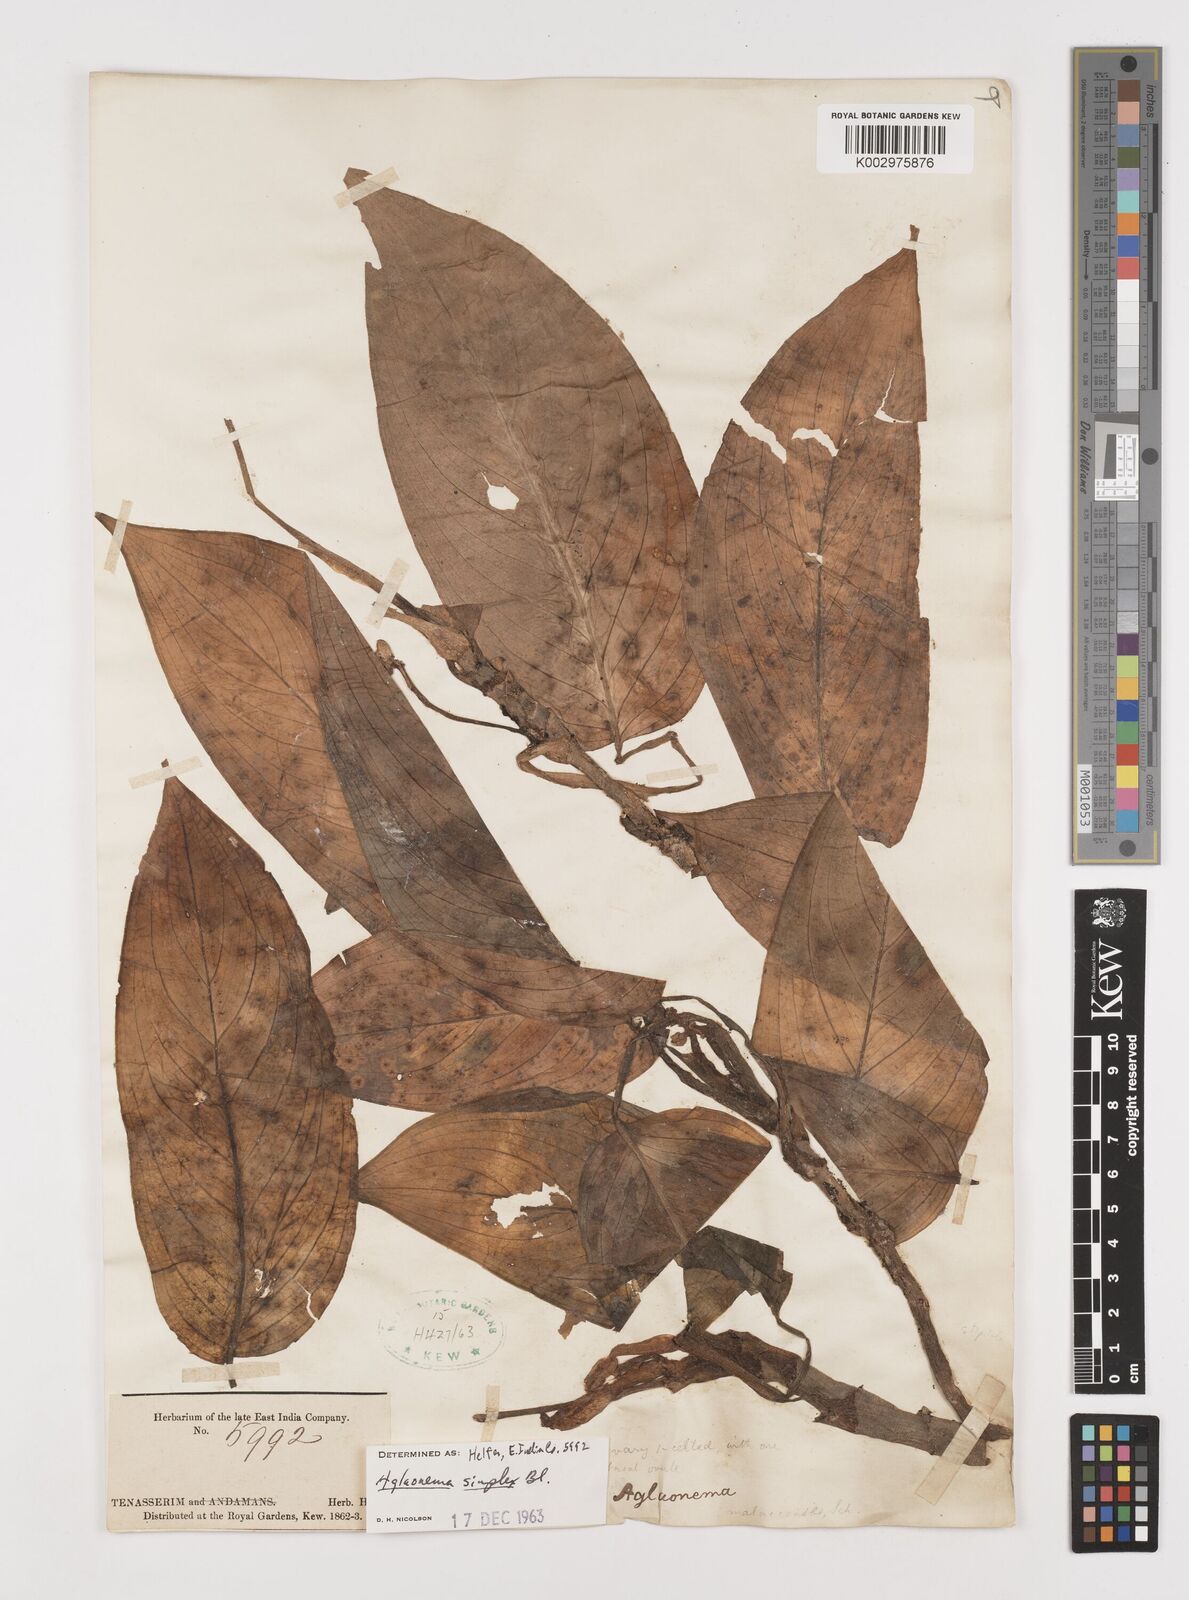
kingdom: Plantae
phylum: Tracheophyta
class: Liliopsida
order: Alismatales
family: Araceae
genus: Aglaonema
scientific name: Aglaonema simplex
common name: Malayan-sword
